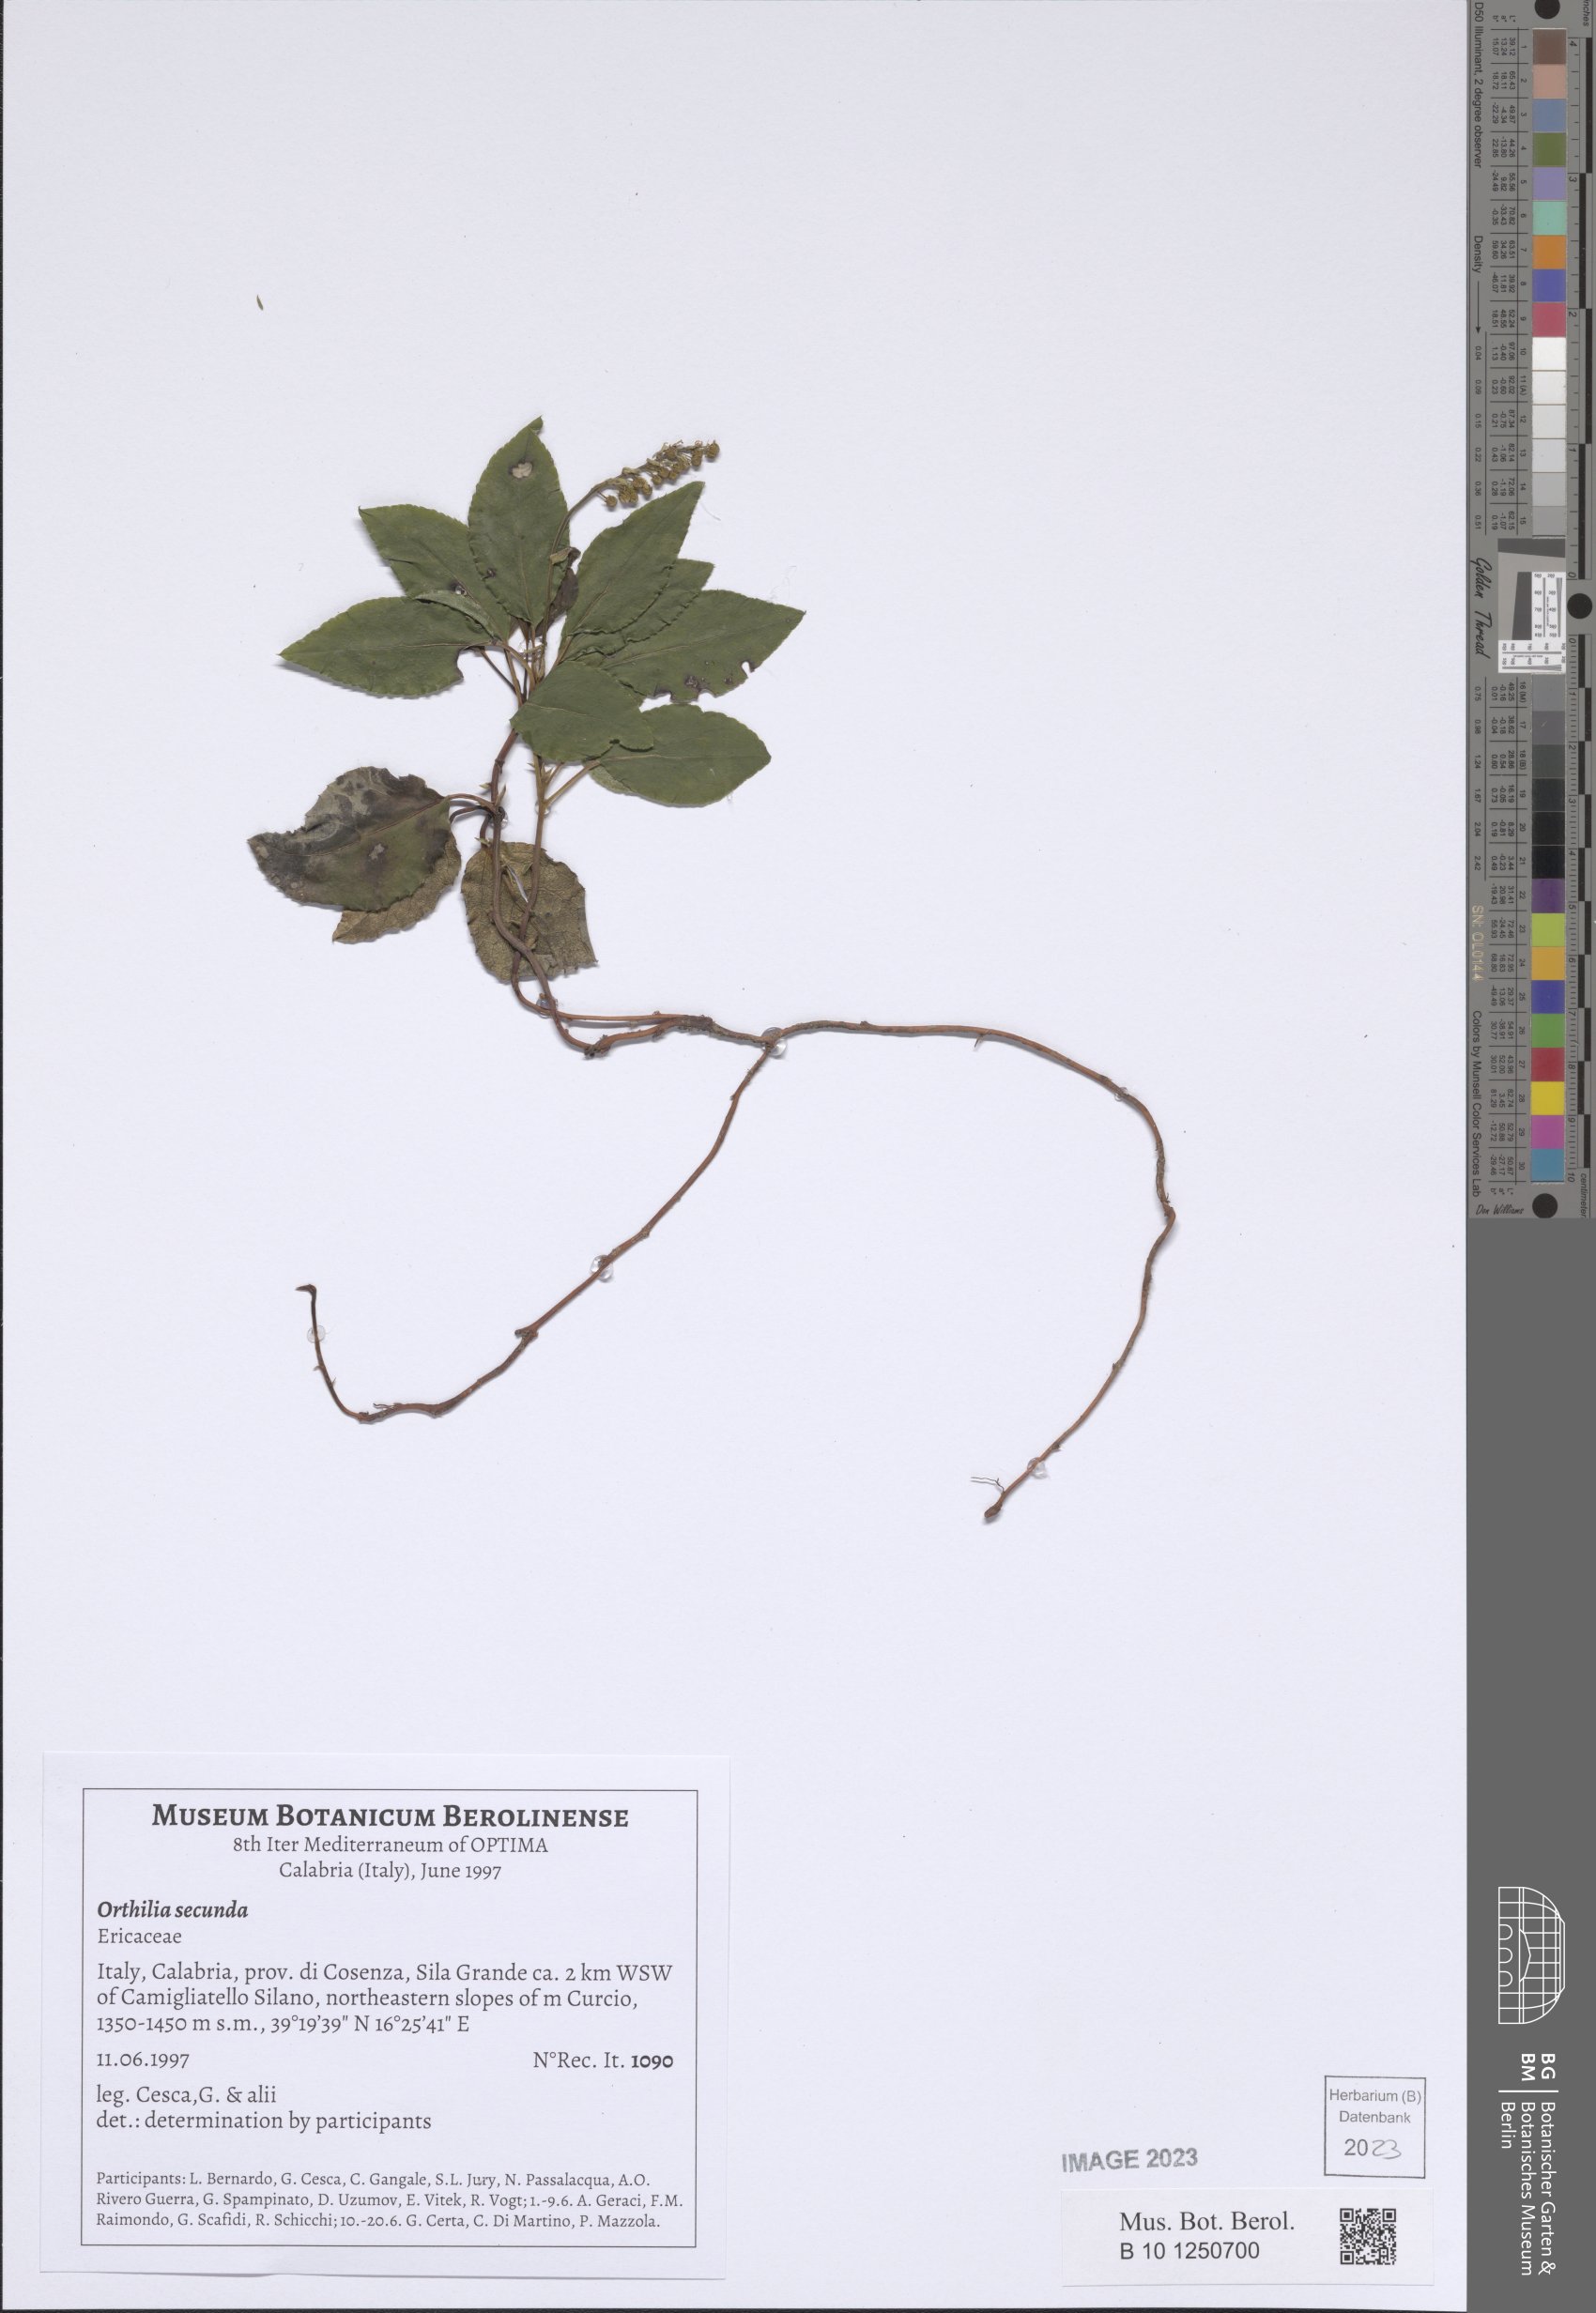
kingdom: Plantae
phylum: Tracheophyta
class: Magnoliopsida
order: Ericales
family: Ericaceae
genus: Orthilia
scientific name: Orthilia secunda
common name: One-sided orthilia
